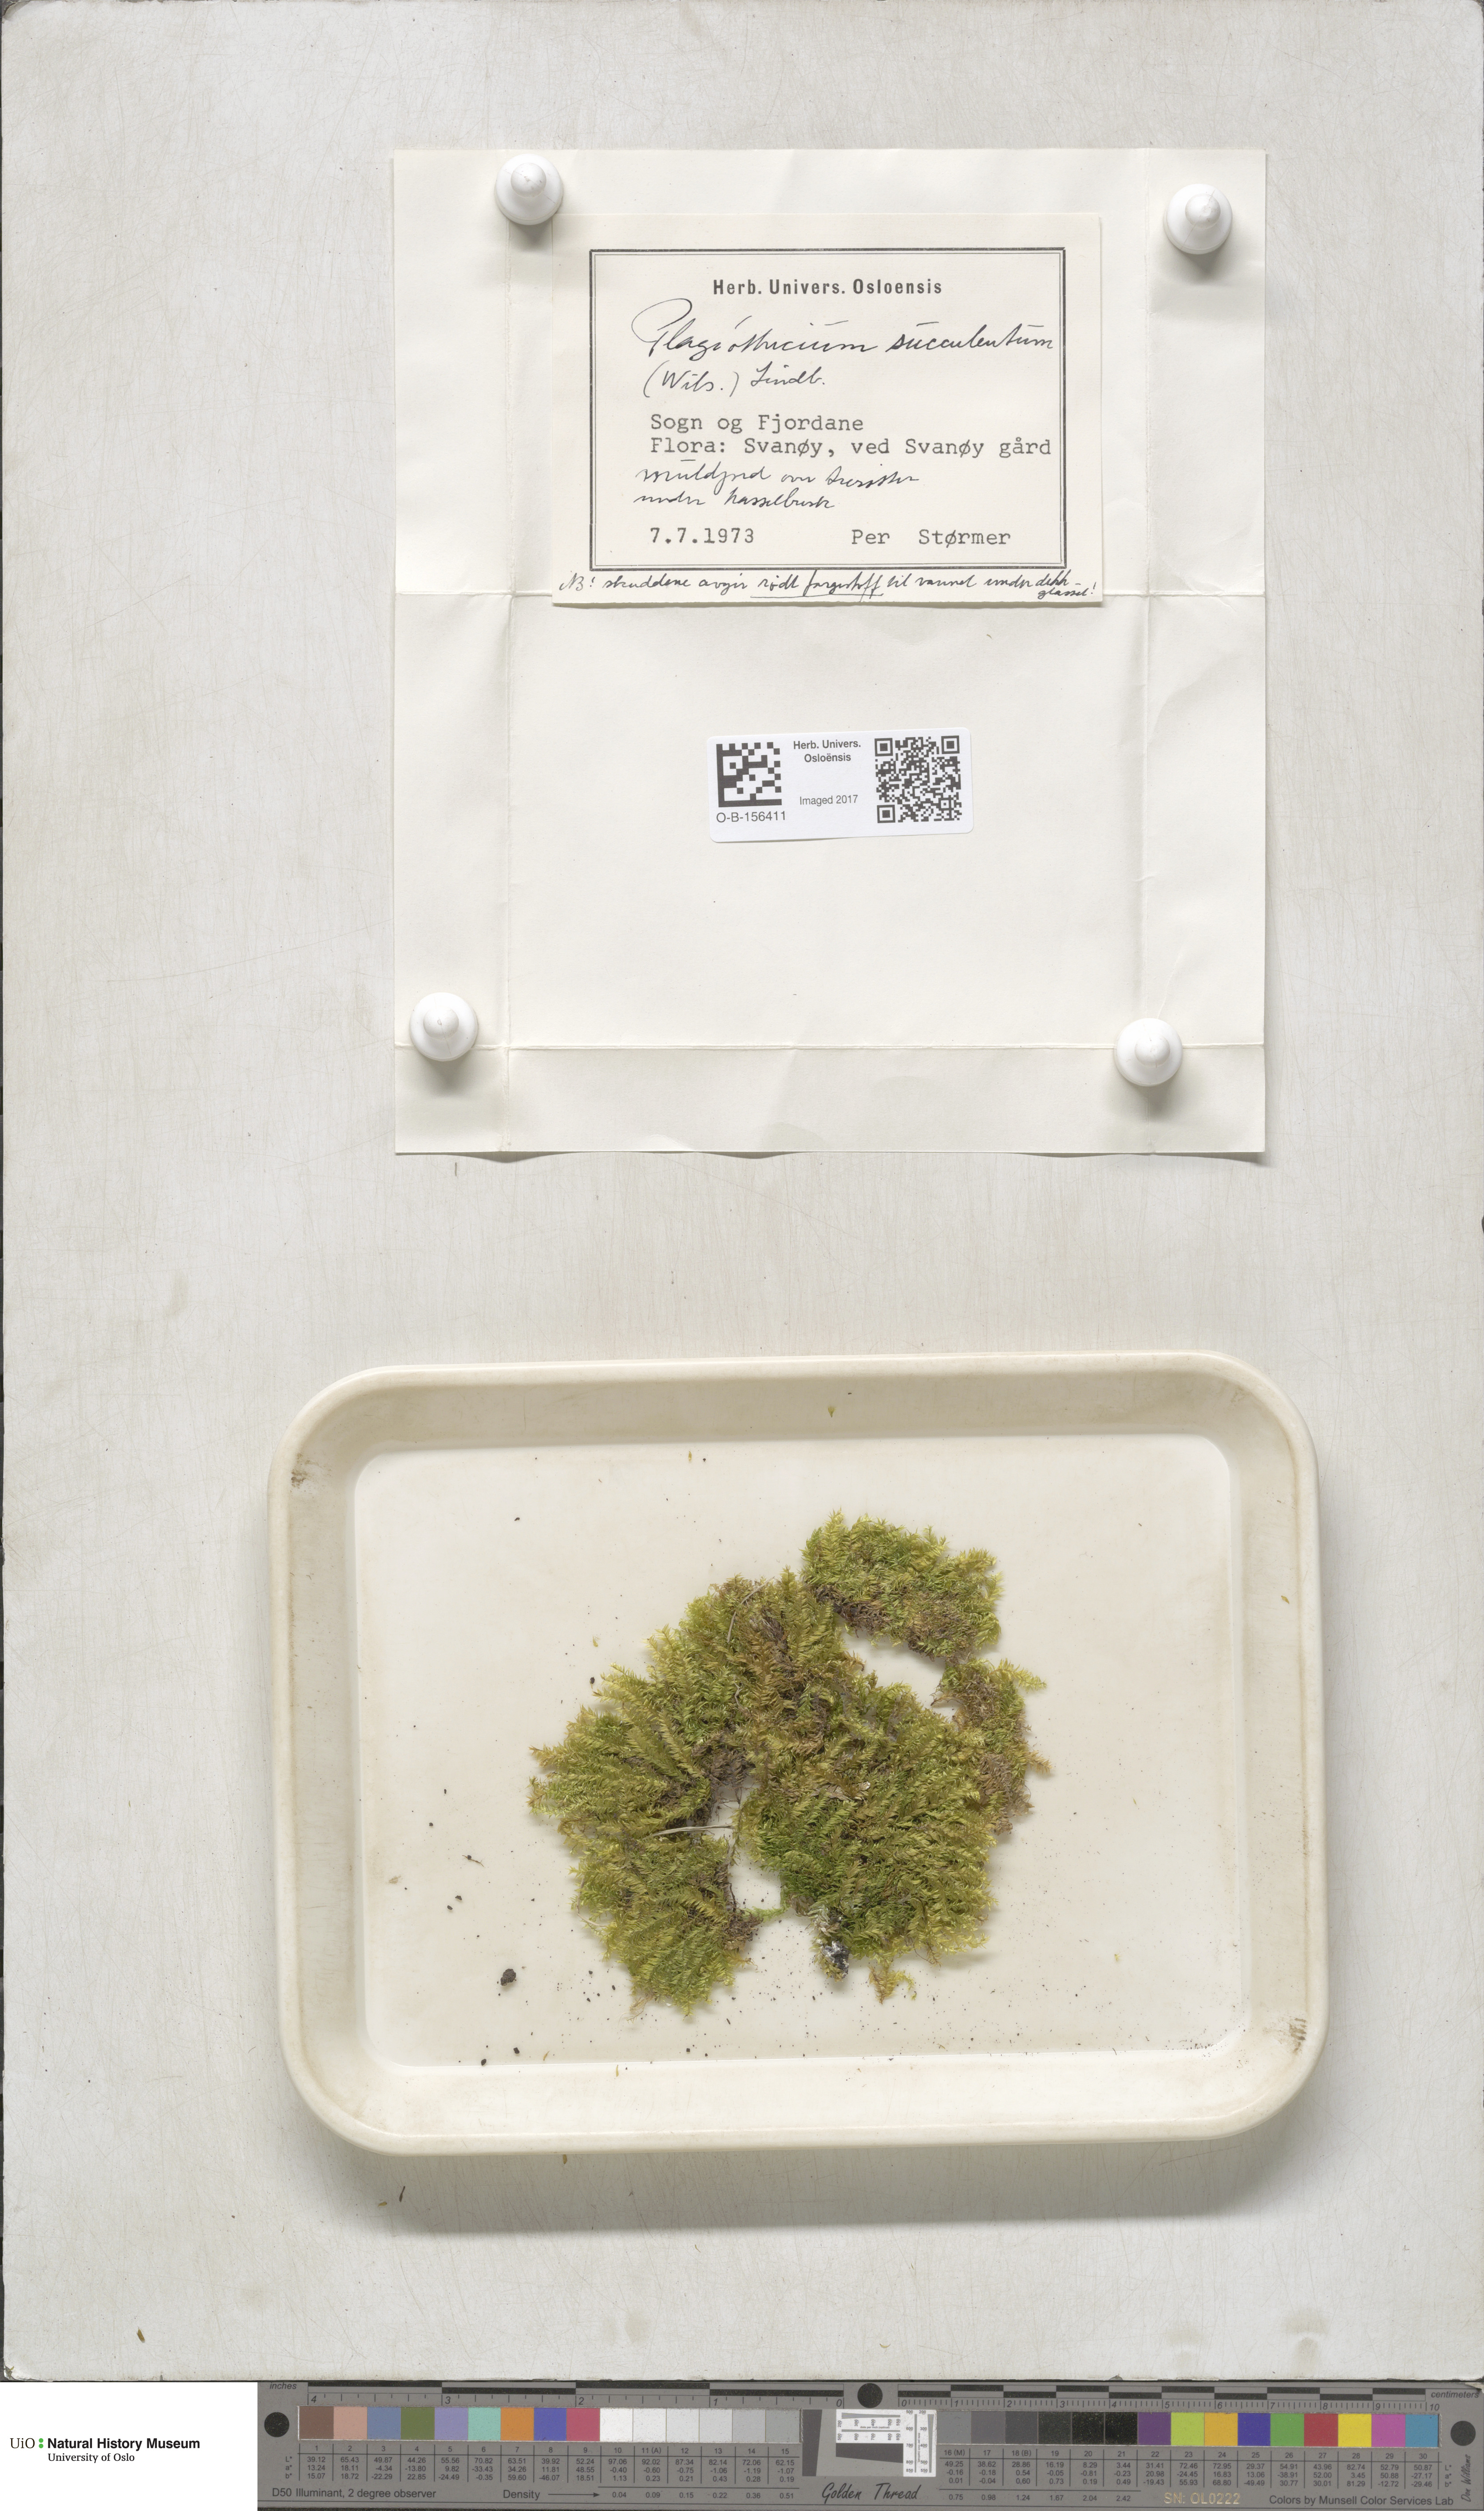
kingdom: Plantae
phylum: Bryophyta
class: Bryopsida
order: Hypnales
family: Plagiotheciaceae
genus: Plagiothecium
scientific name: Plagiothecium nemorale
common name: Woodsy silk-moss
